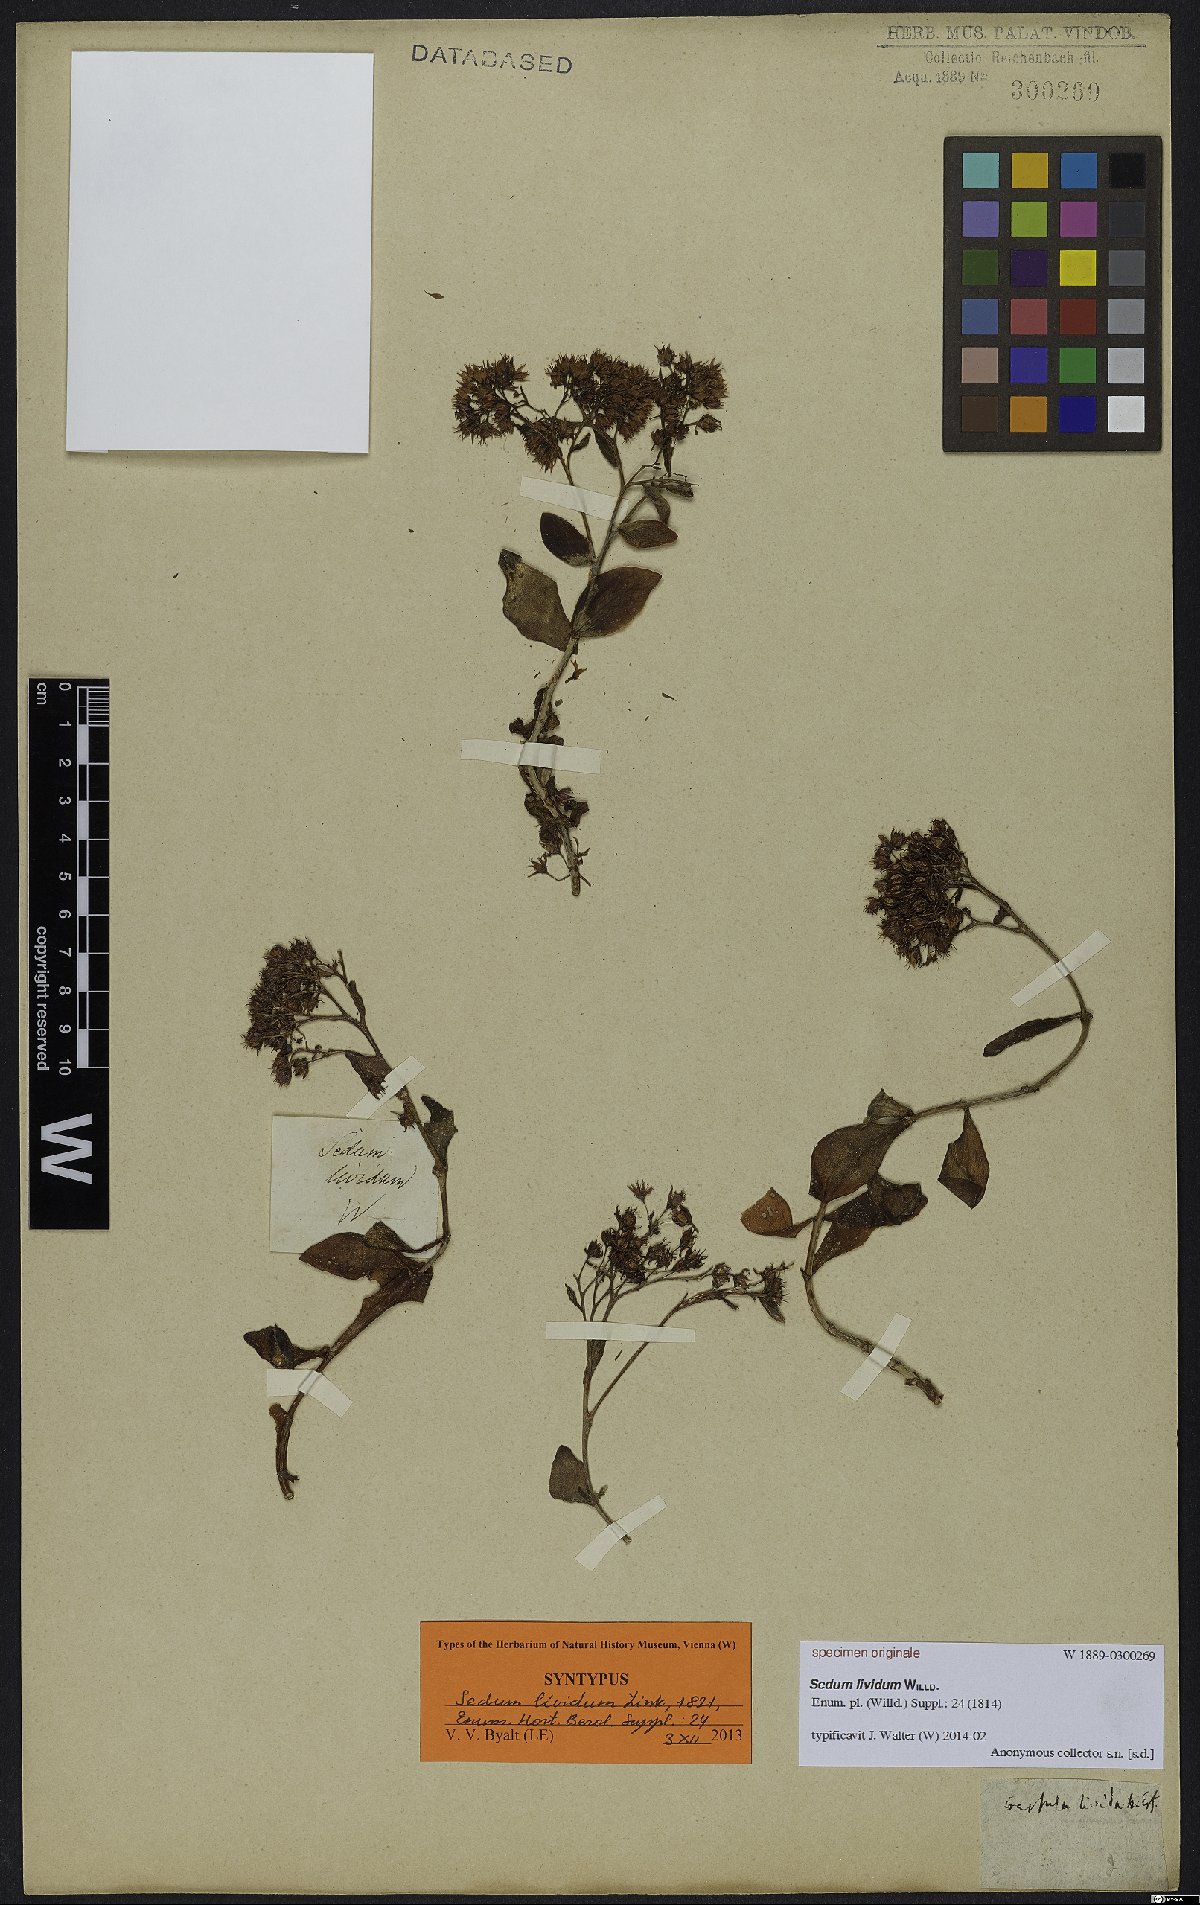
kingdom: Plantae
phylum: Tracheophyta
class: Magnoliopsida
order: Saxifragales
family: Crassulaceae
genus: Hylotelephium
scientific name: Hylotelephium anacampseros
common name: Love-restorer
